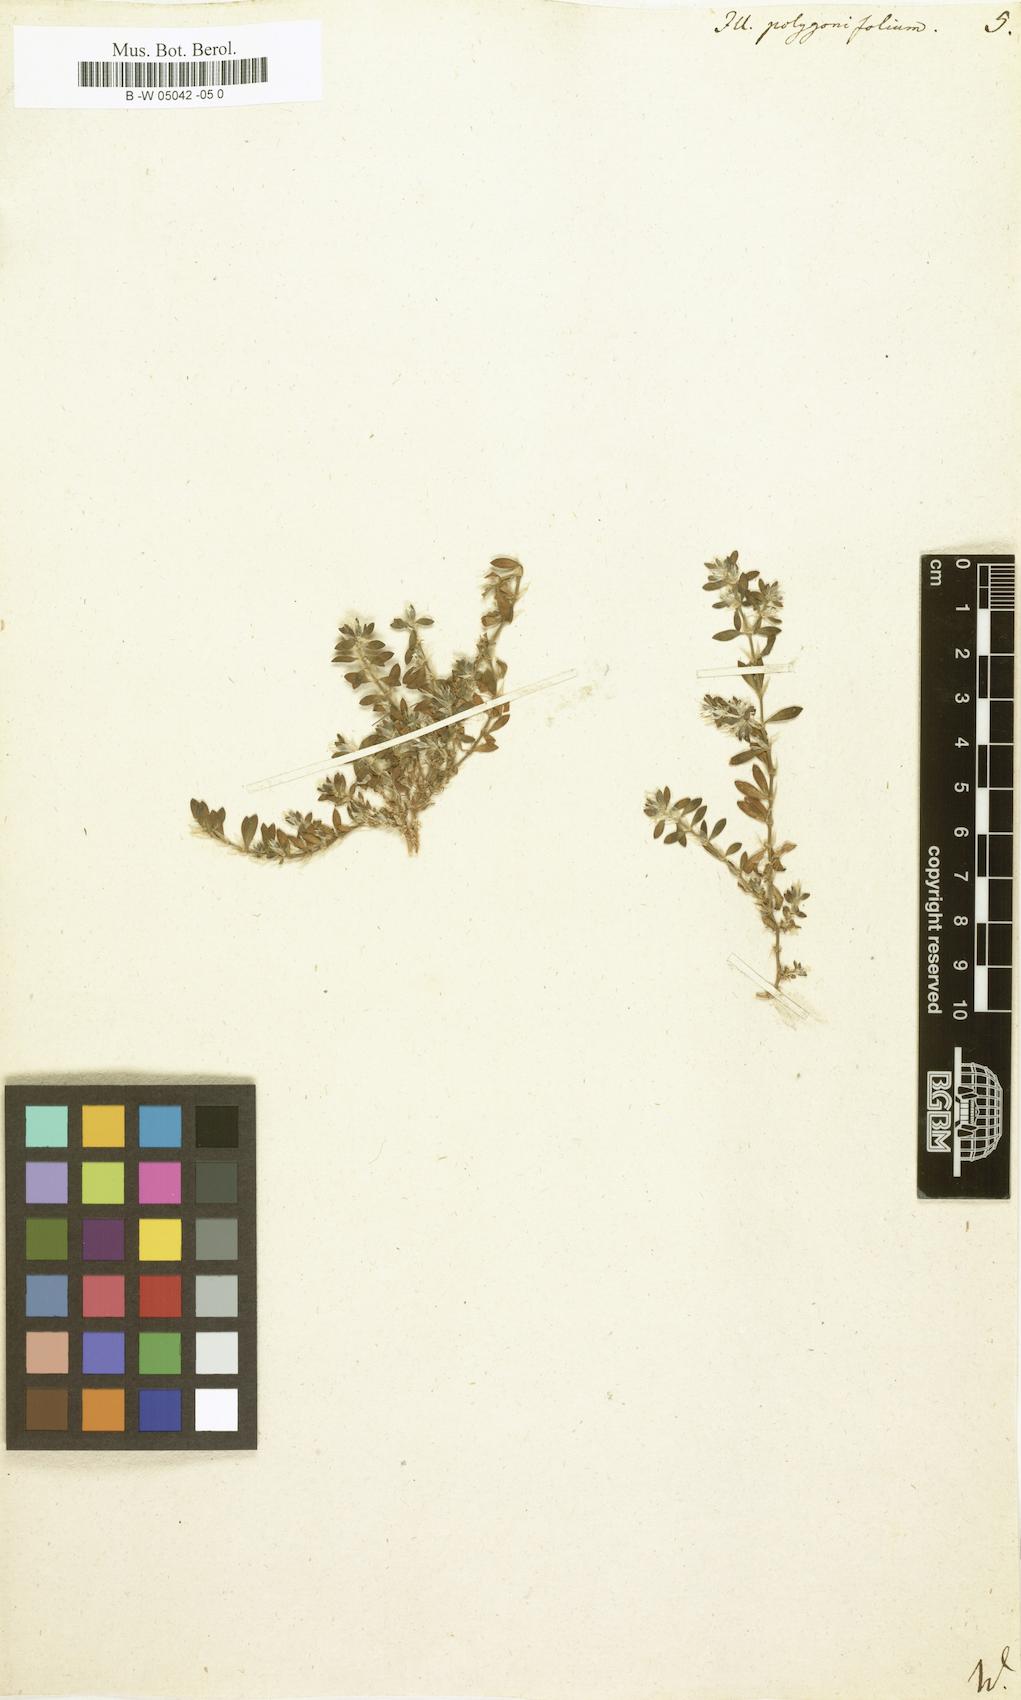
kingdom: Plantae
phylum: Tracheophyta
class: Magnoliopsida
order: Caryophyllales
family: Caryophyllaceae
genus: Paronychia
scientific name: Paronychia polygonifolia
